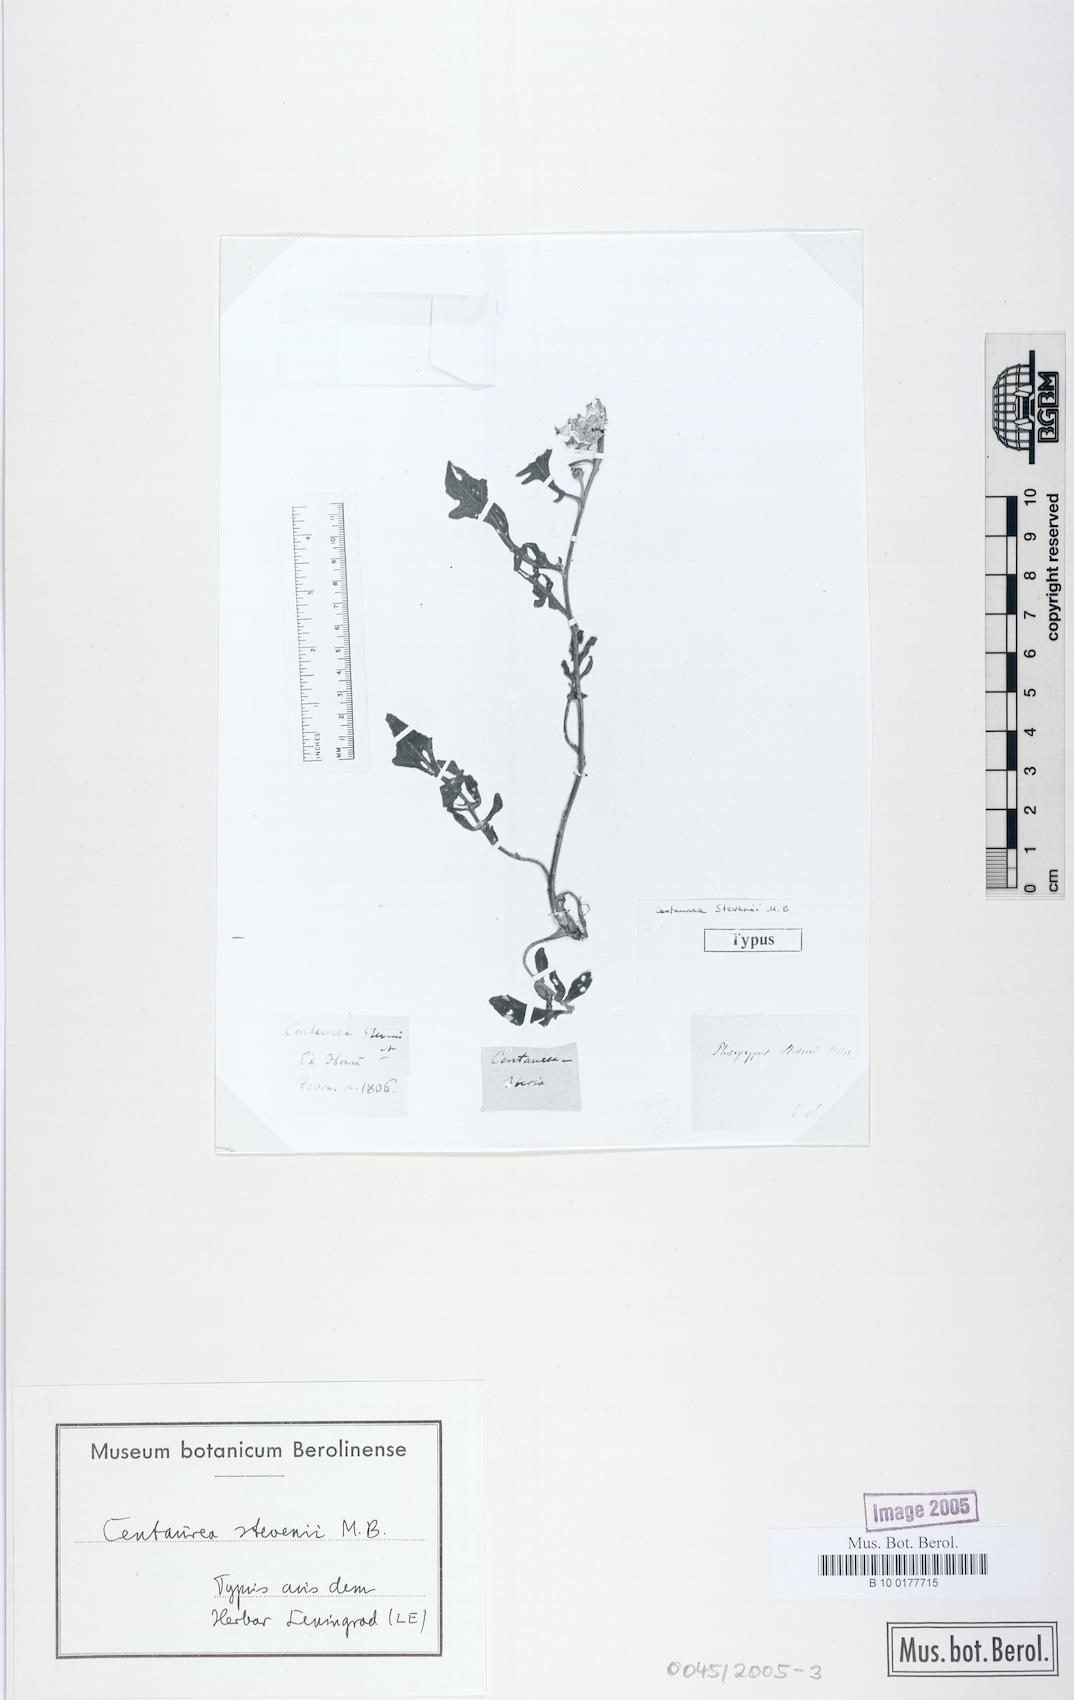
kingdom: Plantae
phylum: Tracheophyta
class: Magnoliopsida
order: Asterales
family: Asteraceae
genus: Centaurea
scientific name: Centaurea stevenii
